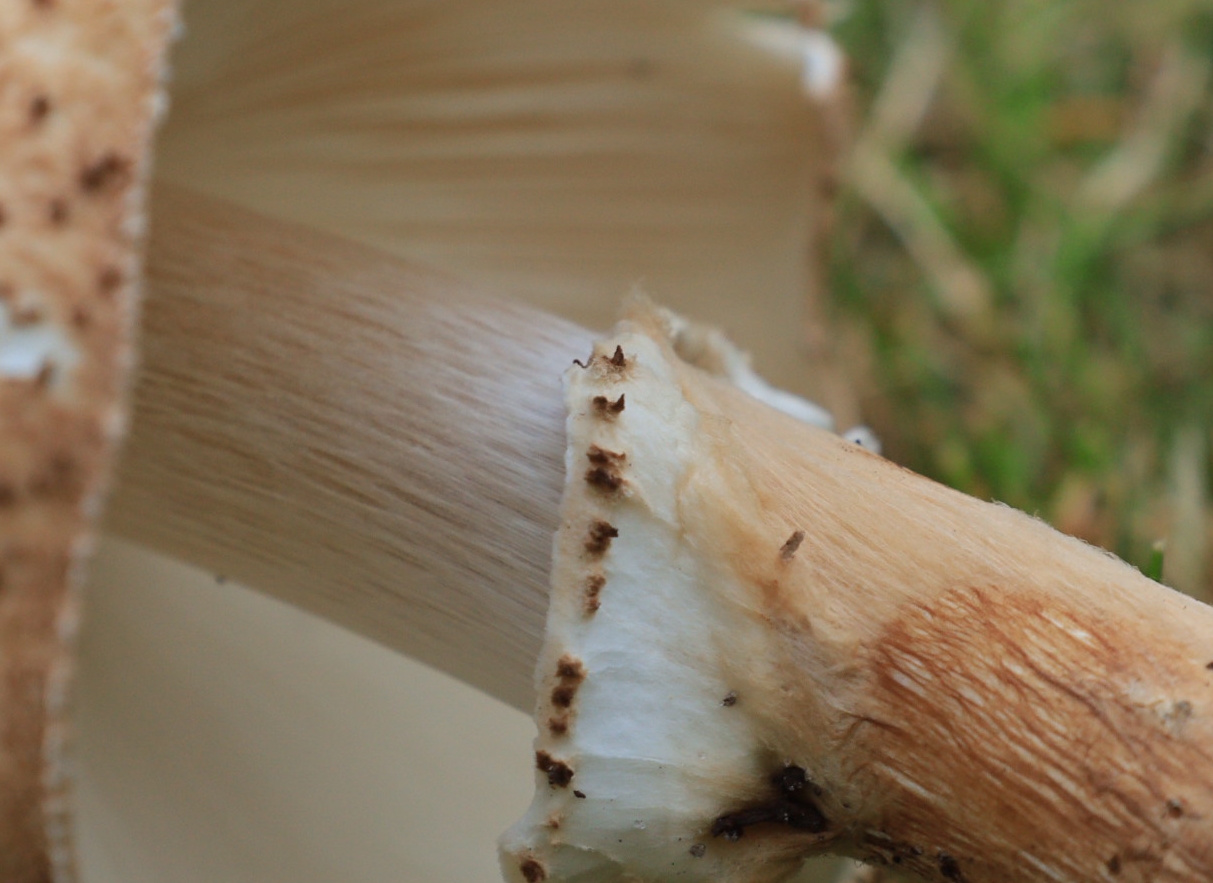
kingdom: Fungi
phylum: Basidiomycota
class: Agaricomycetes
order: Agaricales
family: Agaricaceae
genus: Echinoderma
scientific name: Echinoderma asperum
